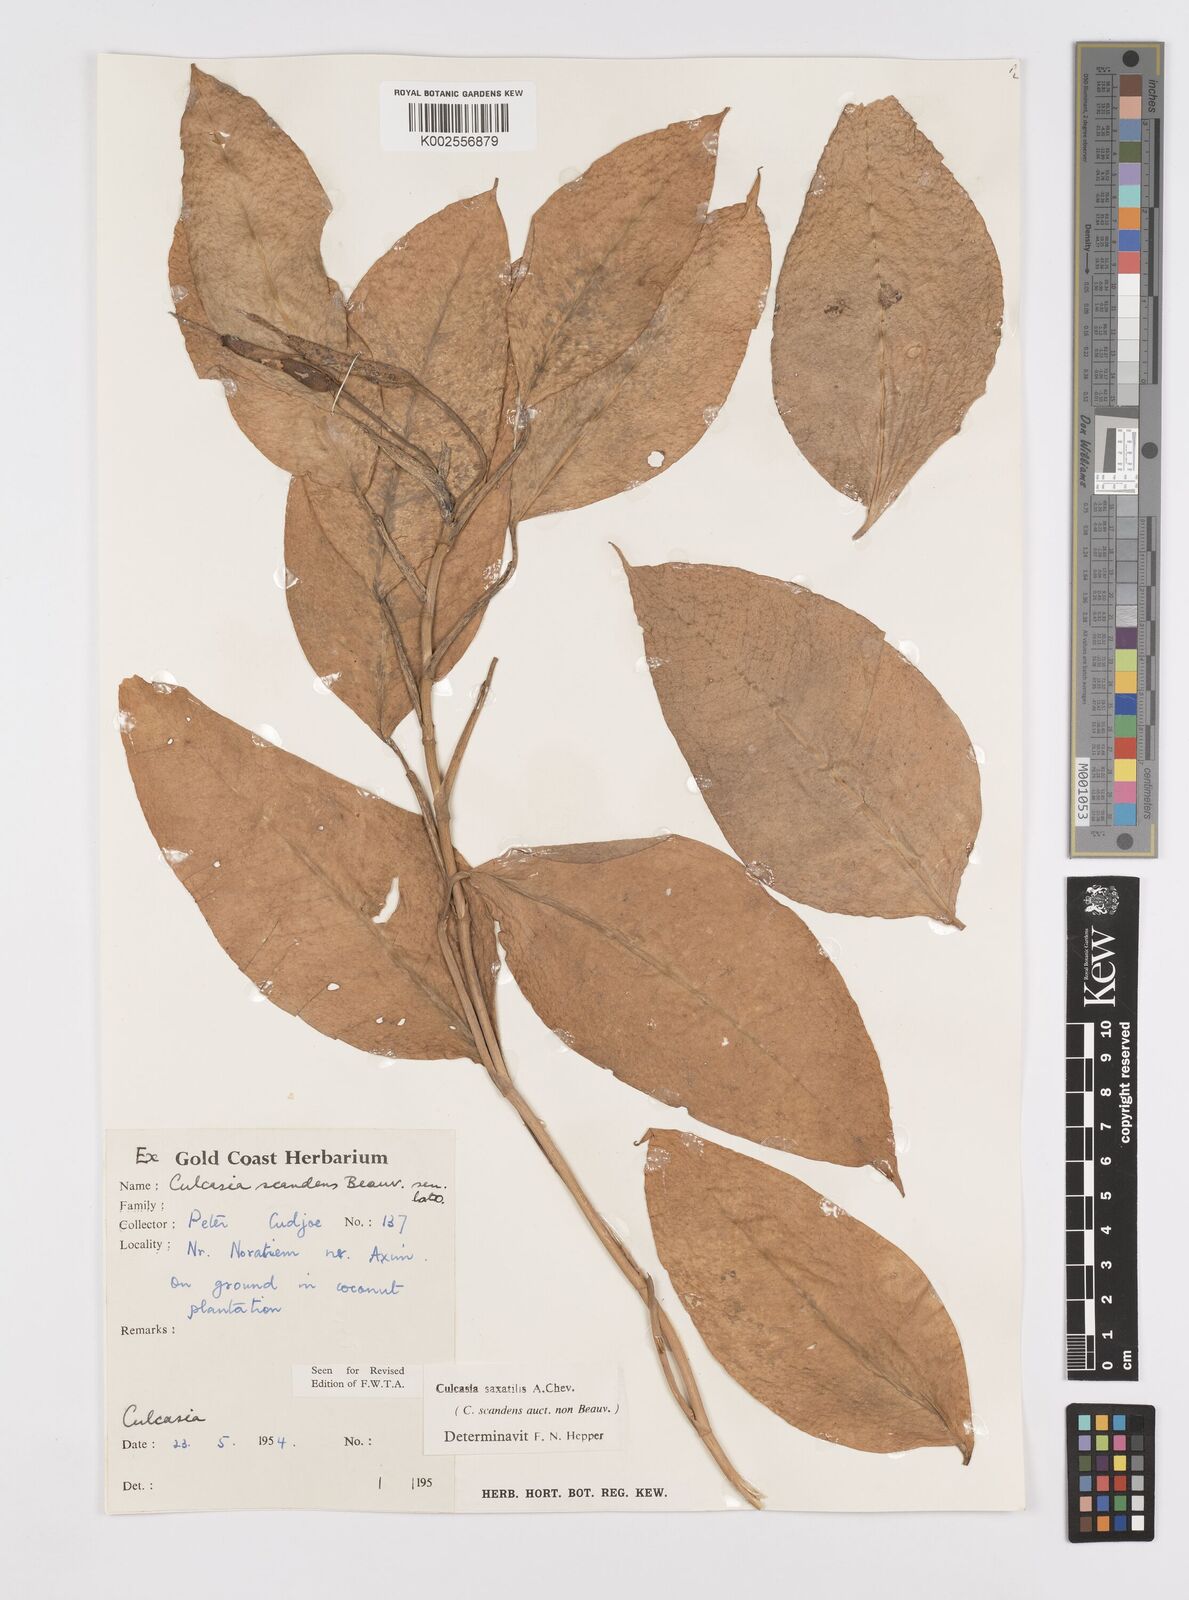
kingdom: Plantae
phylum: Tracheophyta
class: Liliopsida
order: Alismatales
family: Araceae
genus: Culcasia
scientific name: Culcasia scandens
